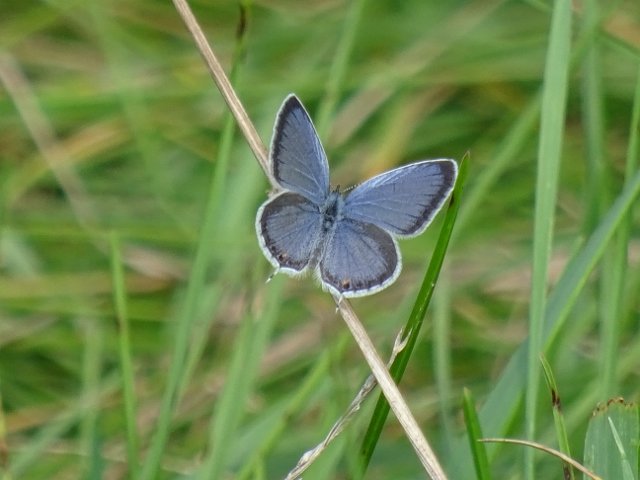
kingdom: Animalia
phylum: Arthropoda
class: Insecta
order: Lepidoptera
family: Lycaenidae
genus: Elkalyce
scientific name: Elkalyce comyntas
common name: Eastern Tailed-Blue
